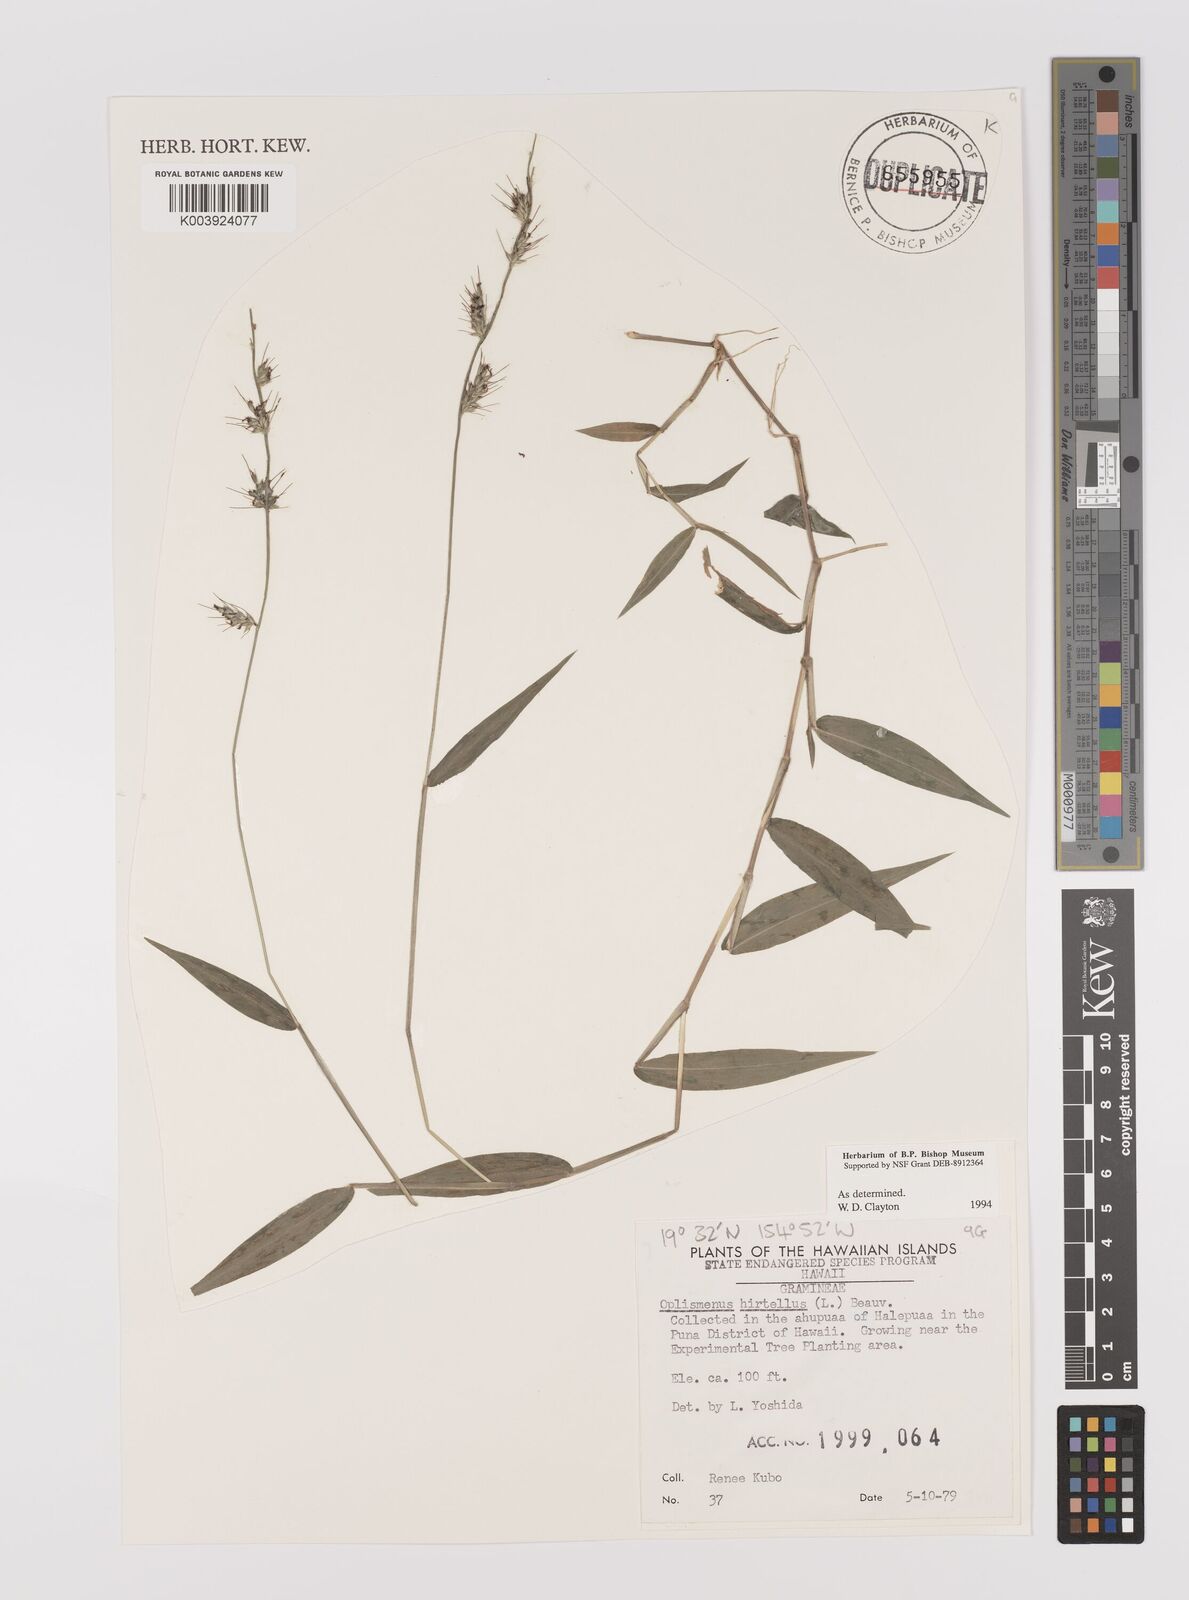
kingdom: Plantae
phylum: Tracheophyta
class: Liliopsida
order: Poales
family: Poaceae
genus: Oplismenus
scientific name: Oplismenus hirtellus
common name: Basketgrass
